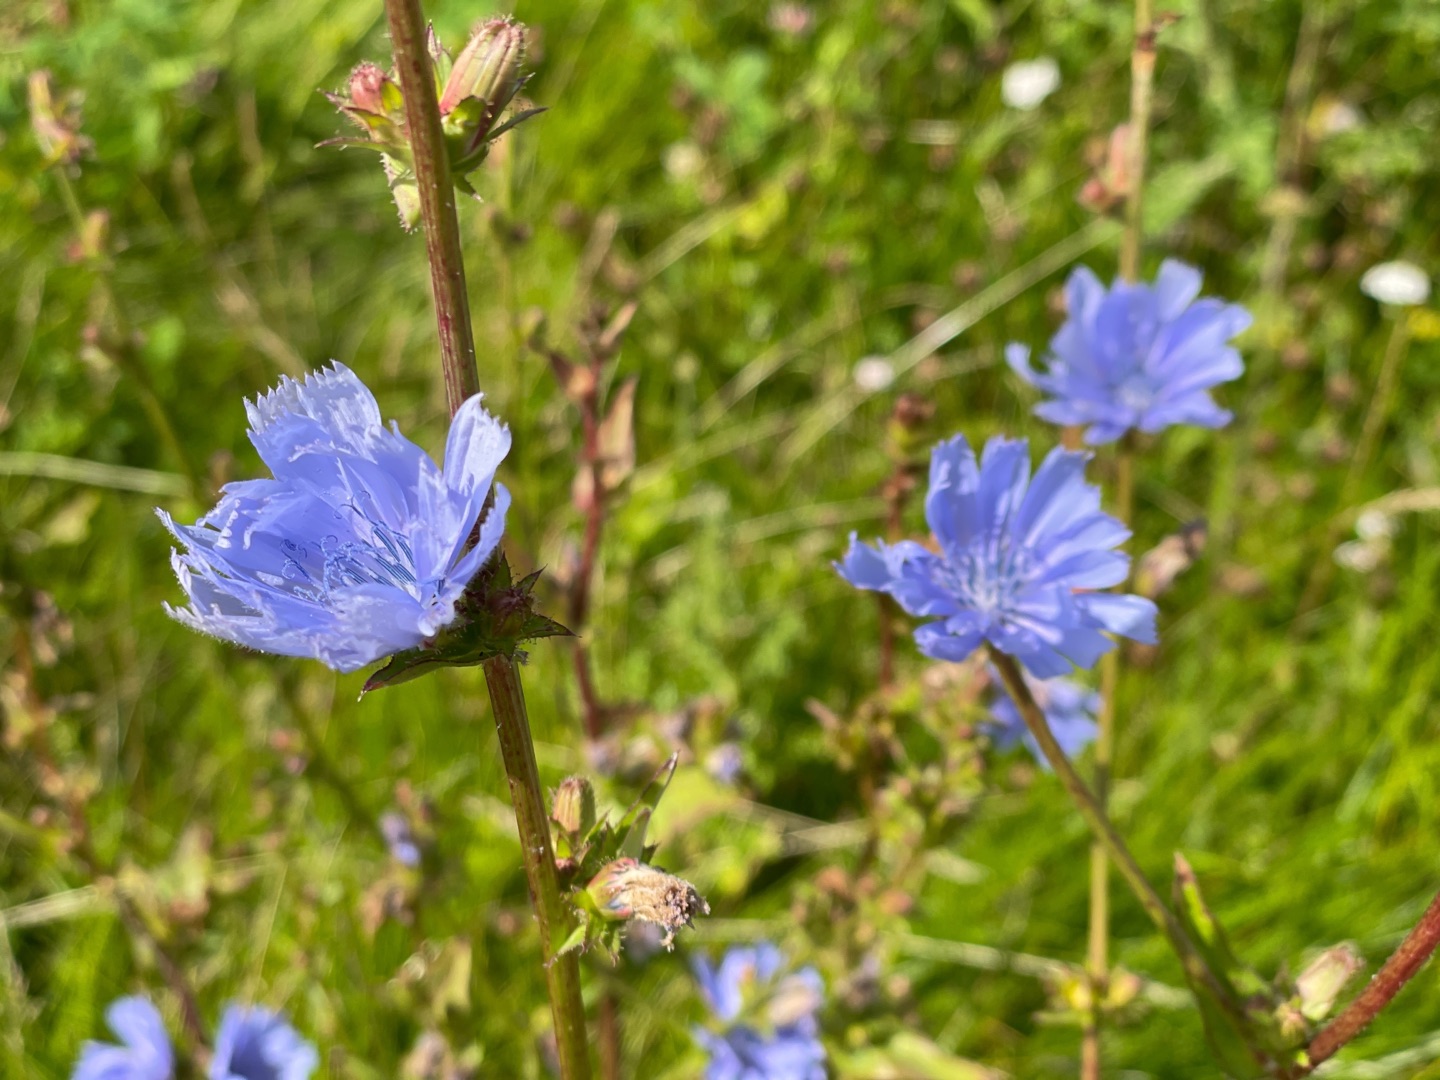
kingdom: Plantae
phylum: Tracheophyta
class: Magnoliopsida
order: Asterales
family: Asteraceae
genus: Cichorium
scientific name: Cichorium intybus
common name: Cikorie
